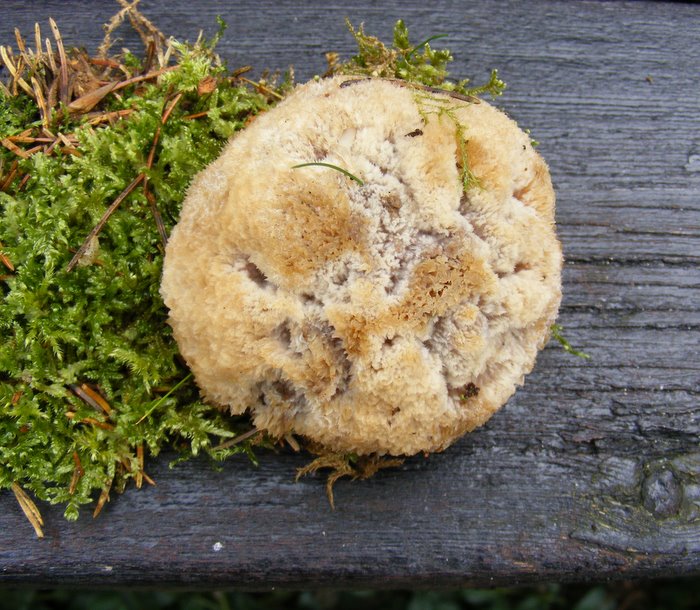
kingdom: Fungi
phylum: Basidiomycota
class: Agaricomycetes
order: Polyporales
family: Dacryobolaceae
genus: Postia
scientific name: Postia ptychogaster
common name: støvende kødporesvamp
